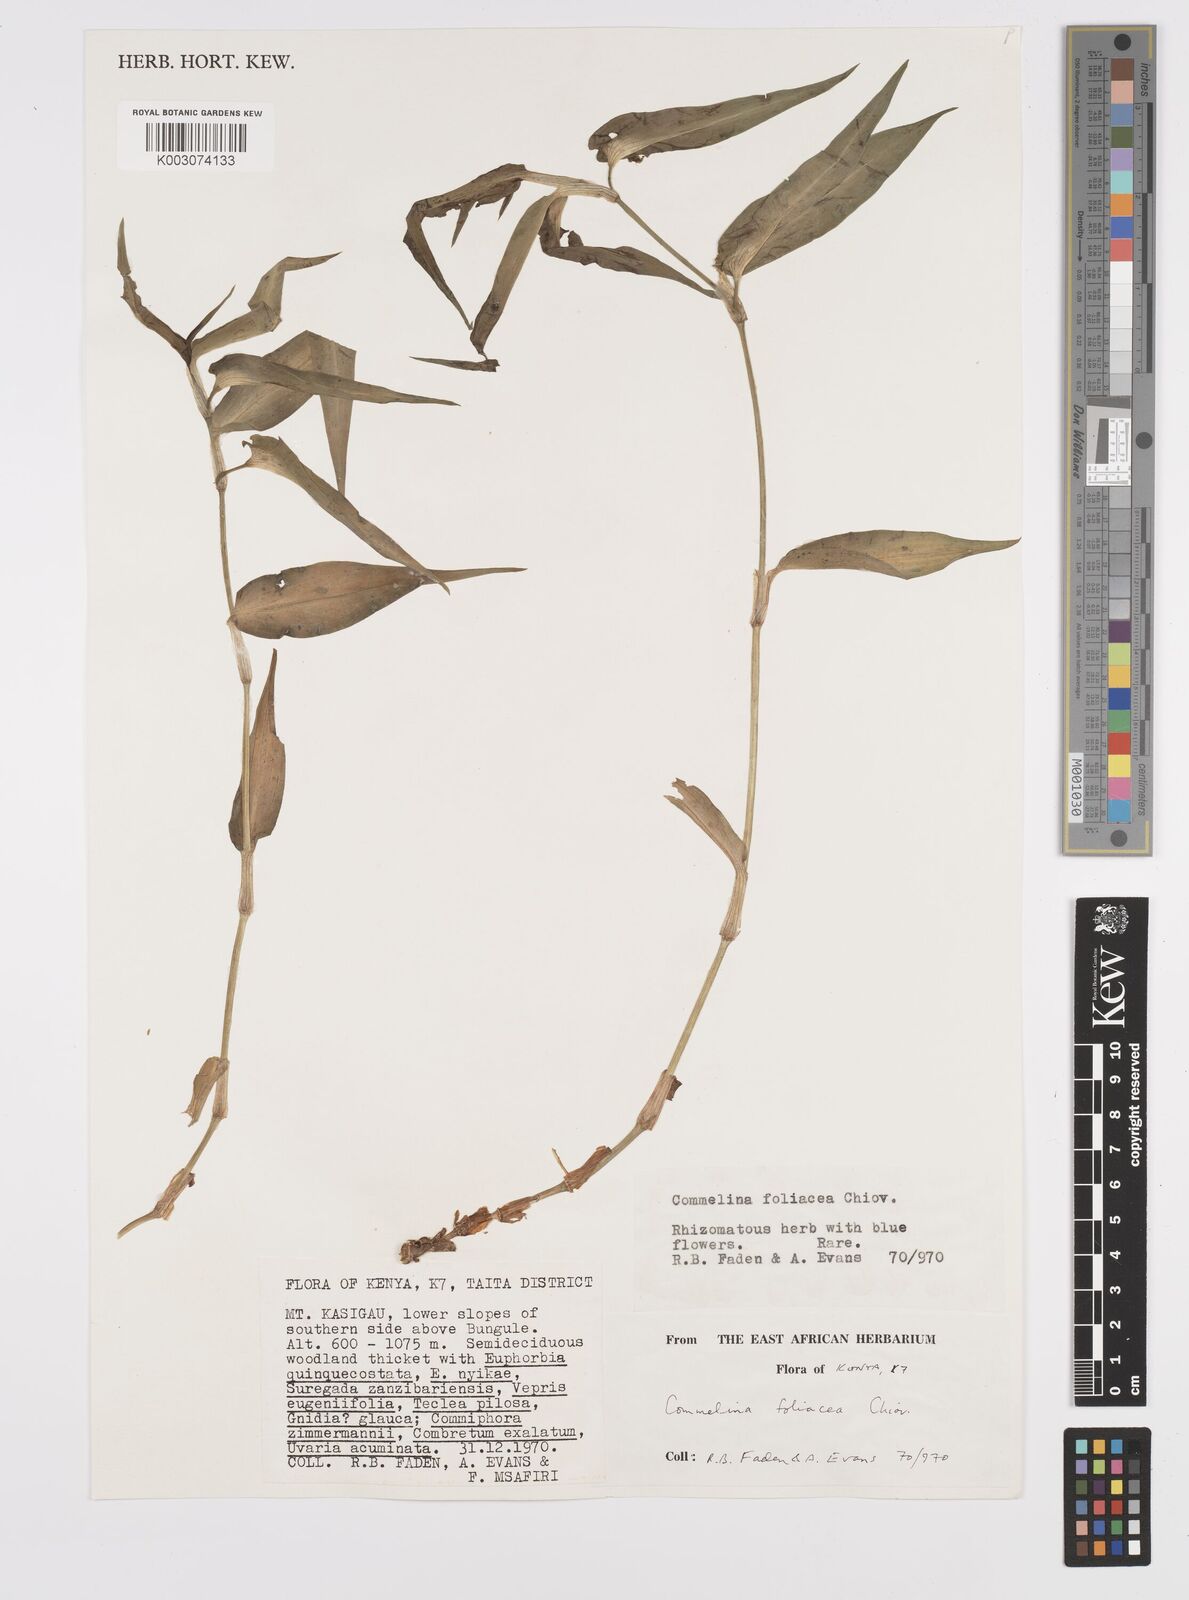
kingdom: Plantae
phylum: Tracheophyta
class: Liliopsida
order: Commelinales
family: Commelinaceae
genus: Commelina
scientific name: Commelina foliacea
